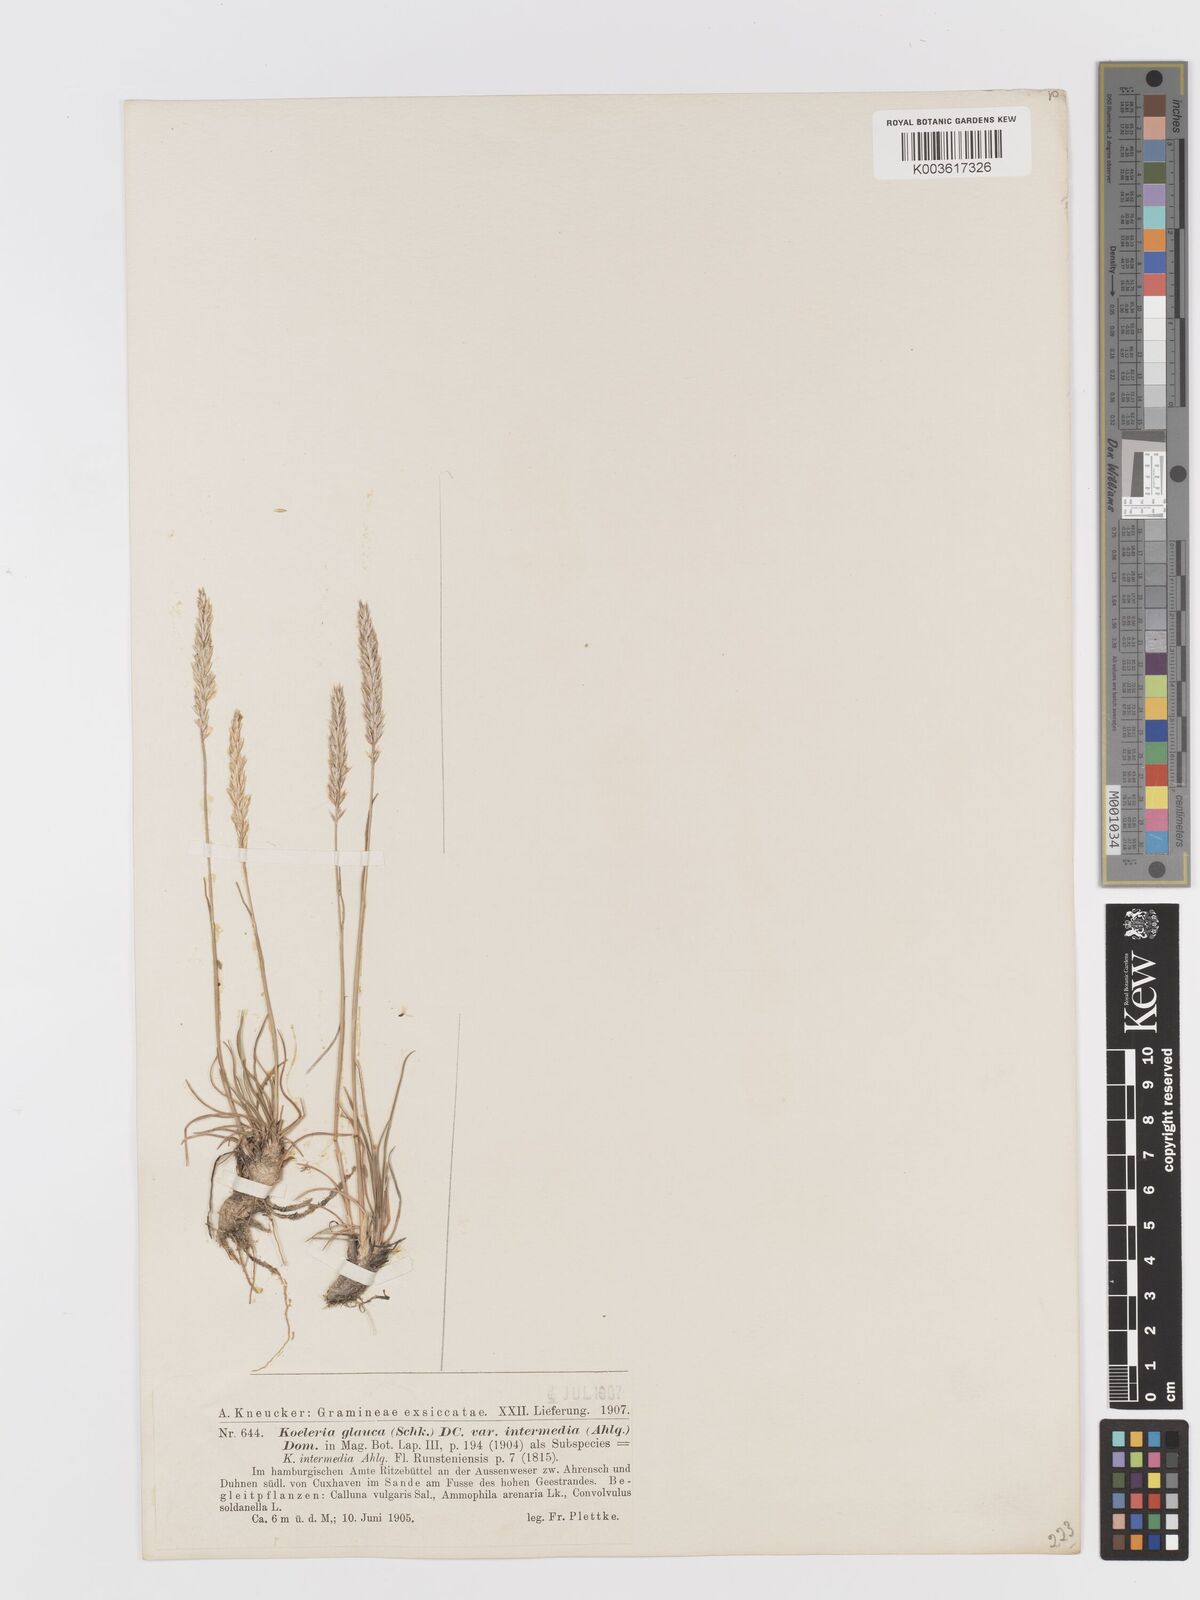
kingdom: Plantae
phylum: Tracheophyta
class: Liliopsida
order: Poales
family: Poaceae
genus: Koeleria
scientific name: Koeleria glauca
